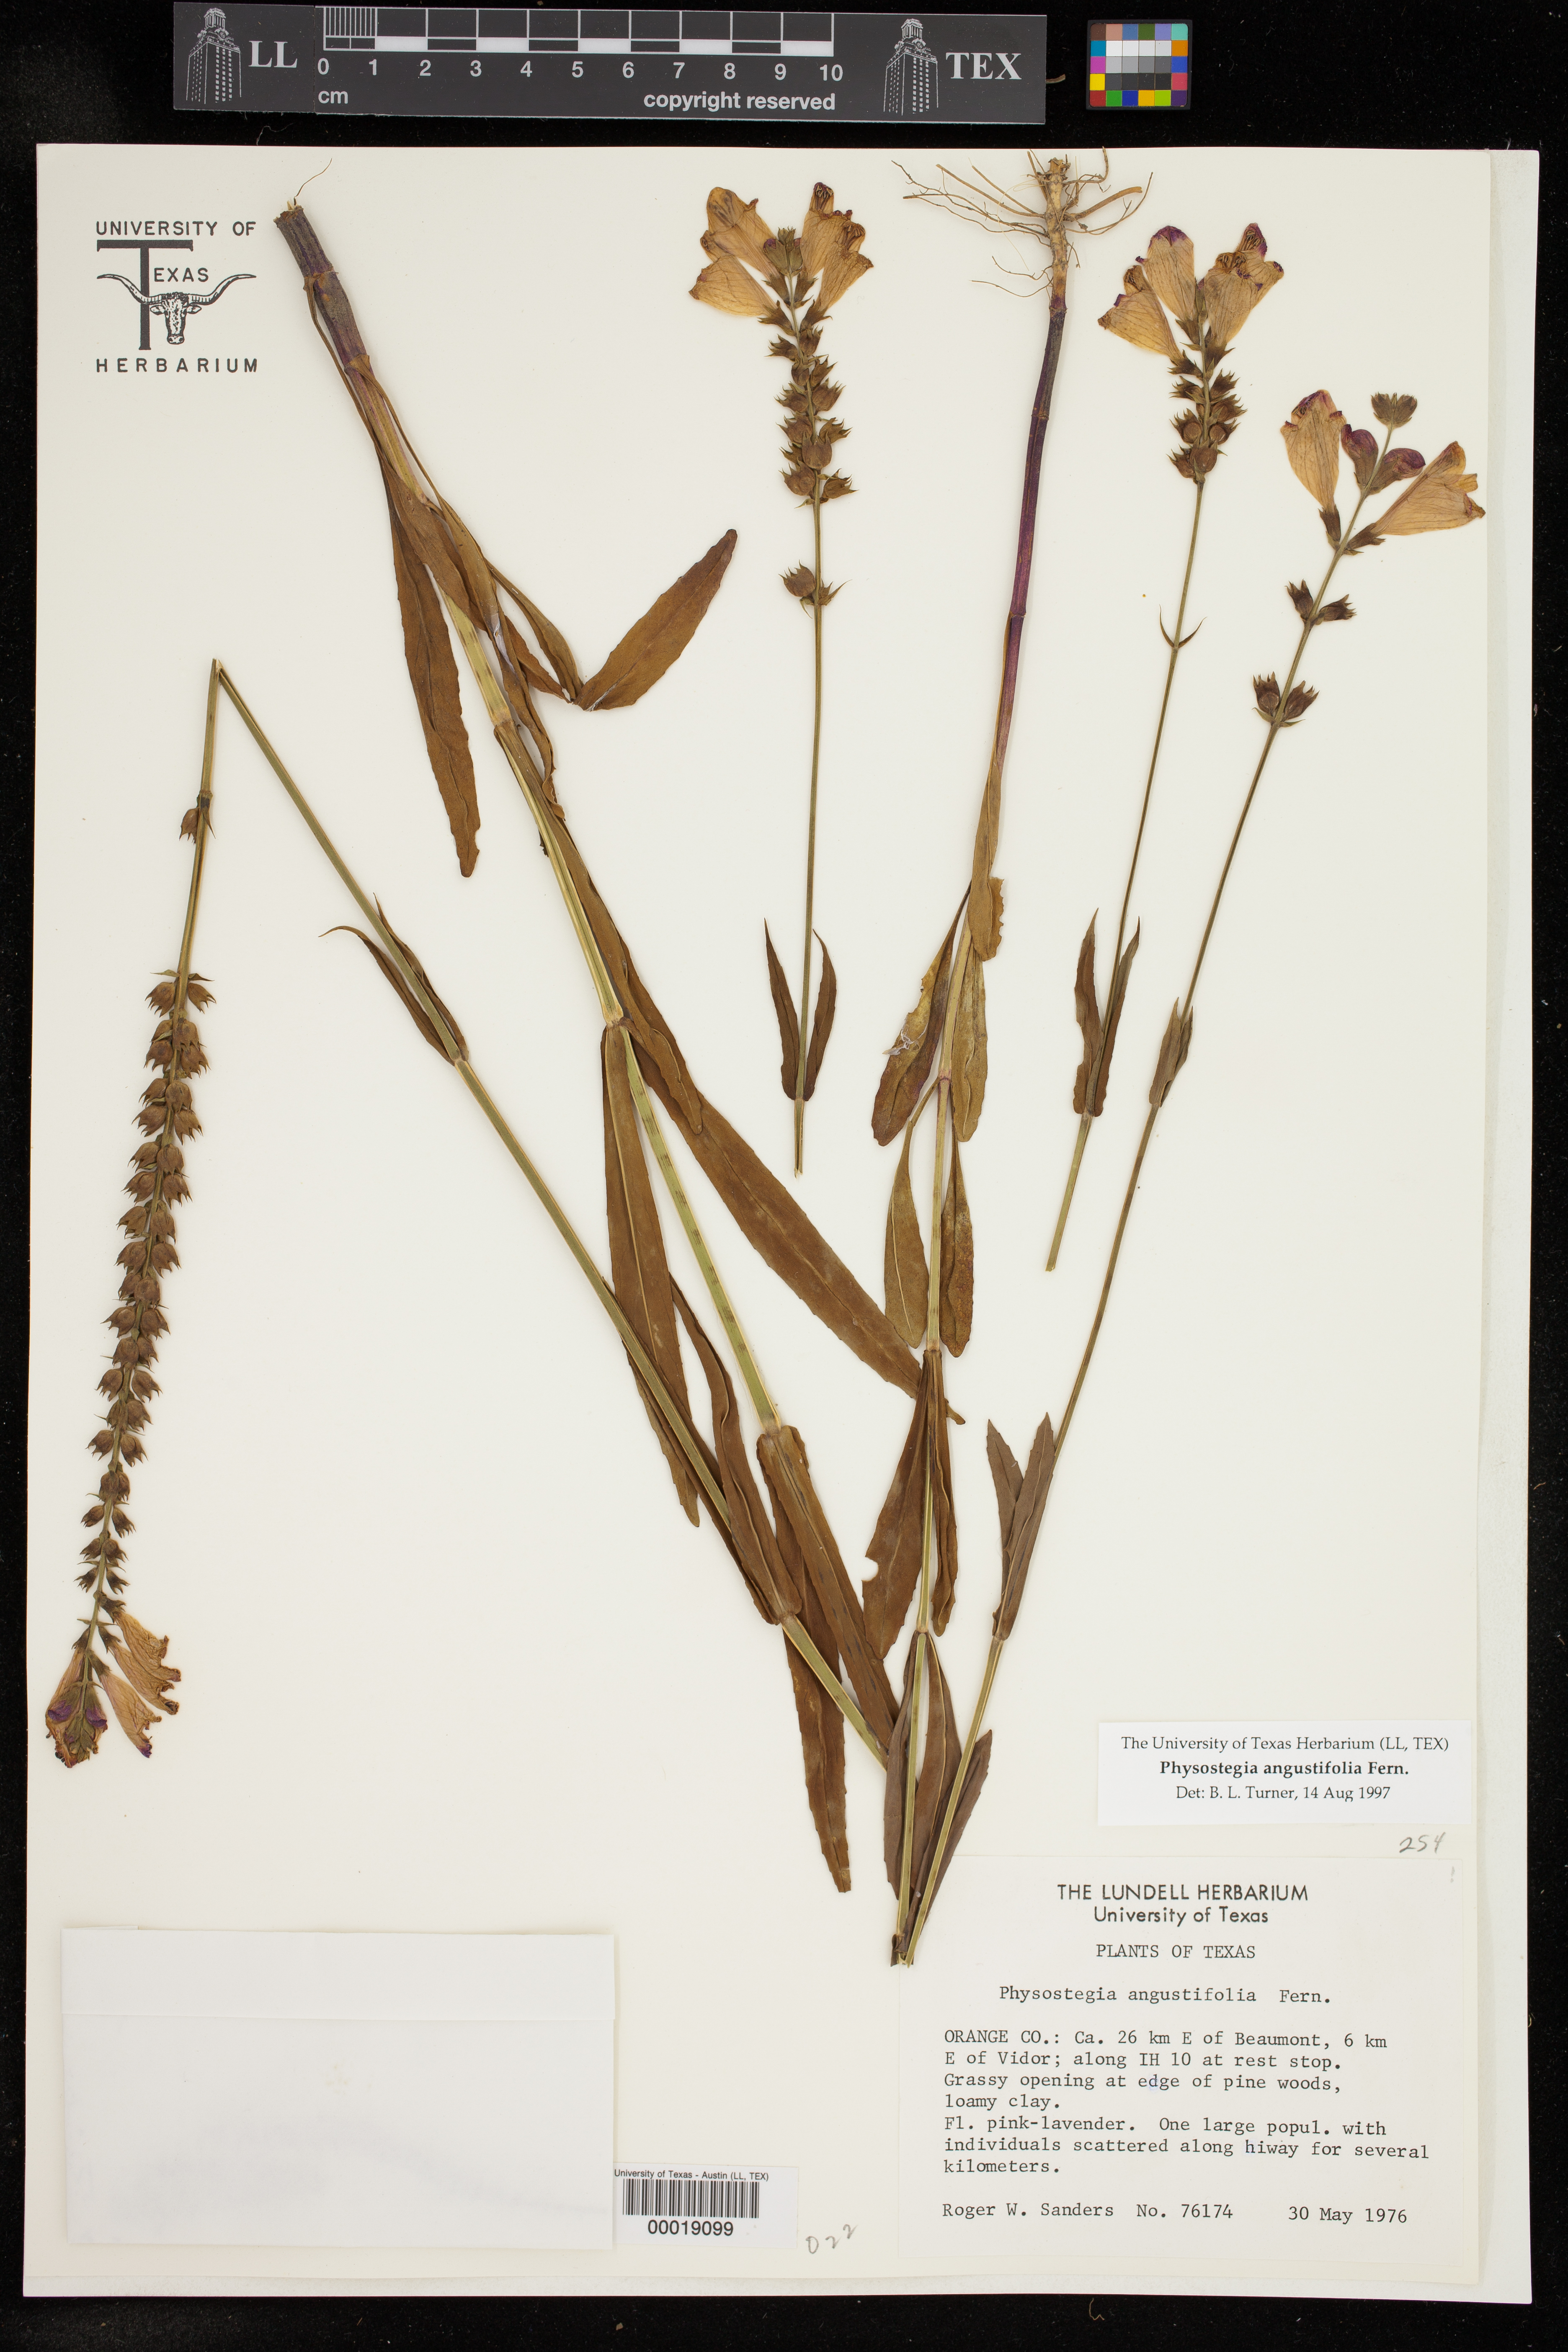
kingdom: Plantae
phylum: Tracheophyta
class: Magnoliopsida
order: Lamiales
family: Lamiaceae
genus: Physostegia
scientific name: Physostegia angustifolia
